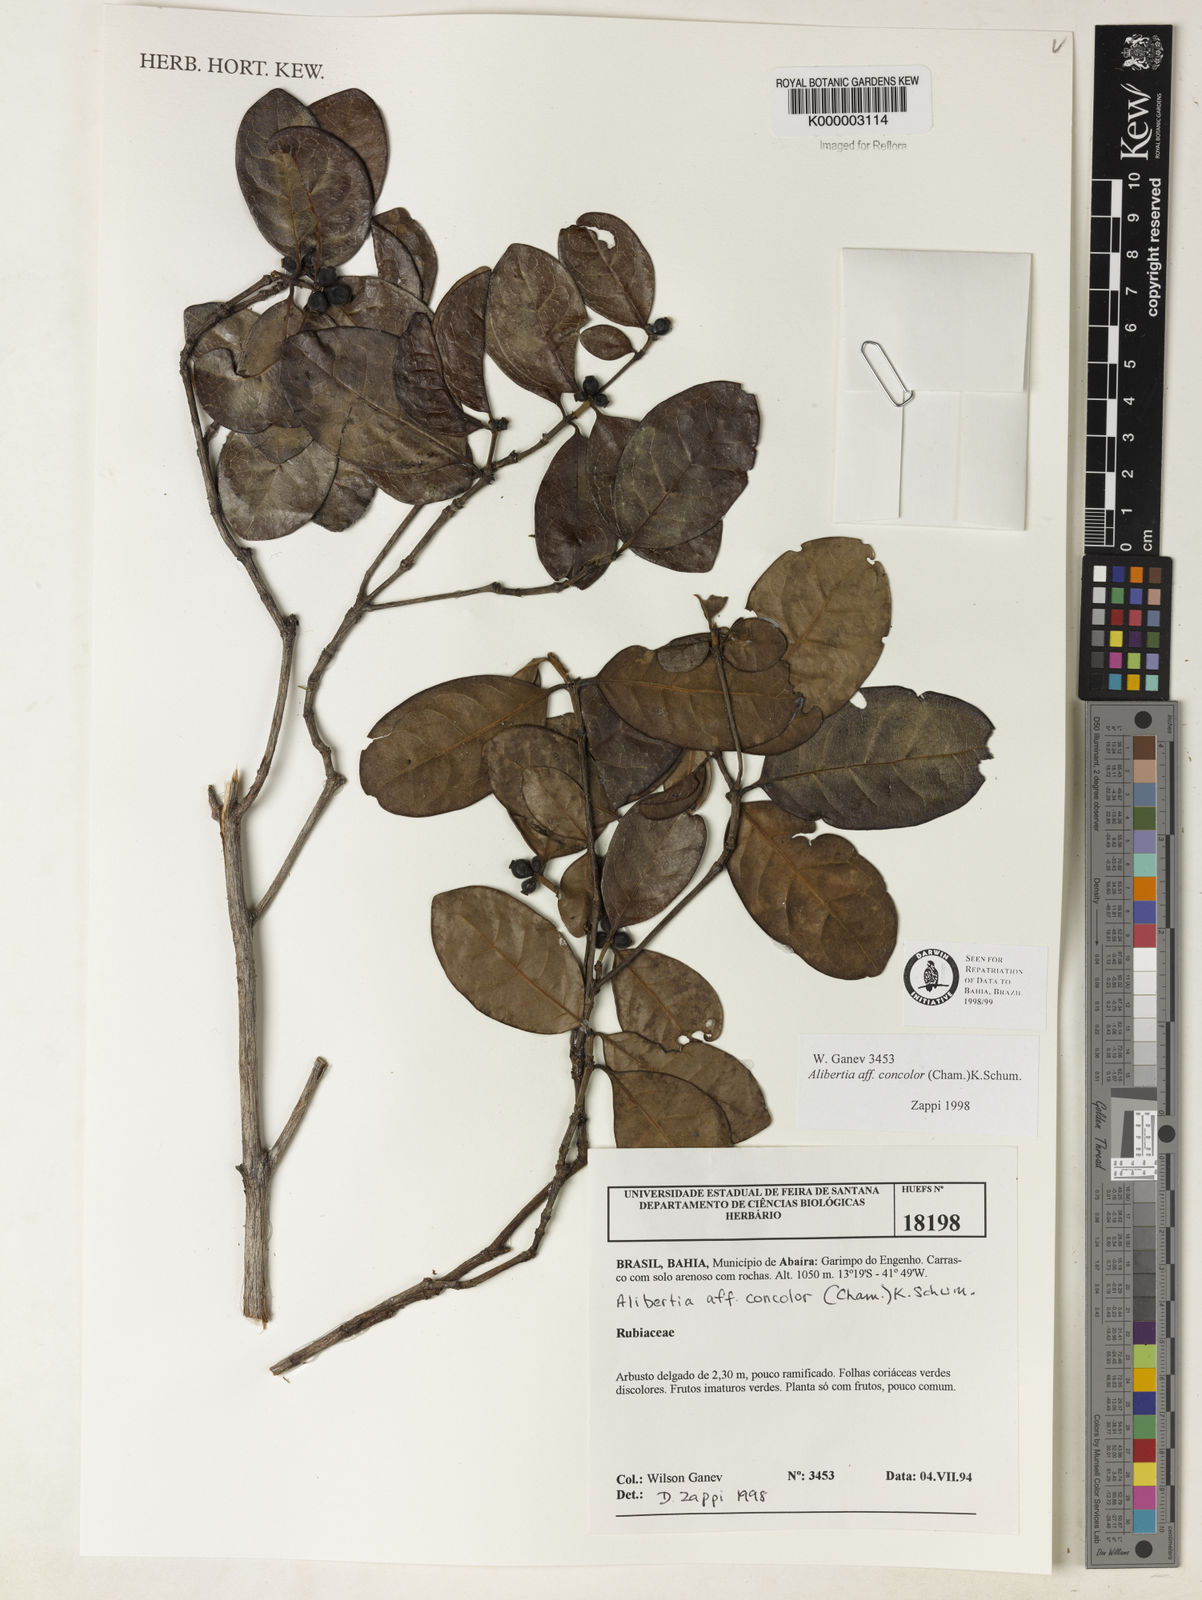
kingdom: Plantae
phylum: Tracheophyta
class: Magnoliopsida
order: Gentianales
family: Rubiaceae
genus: Cordiera
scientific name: Cordiera rigida
